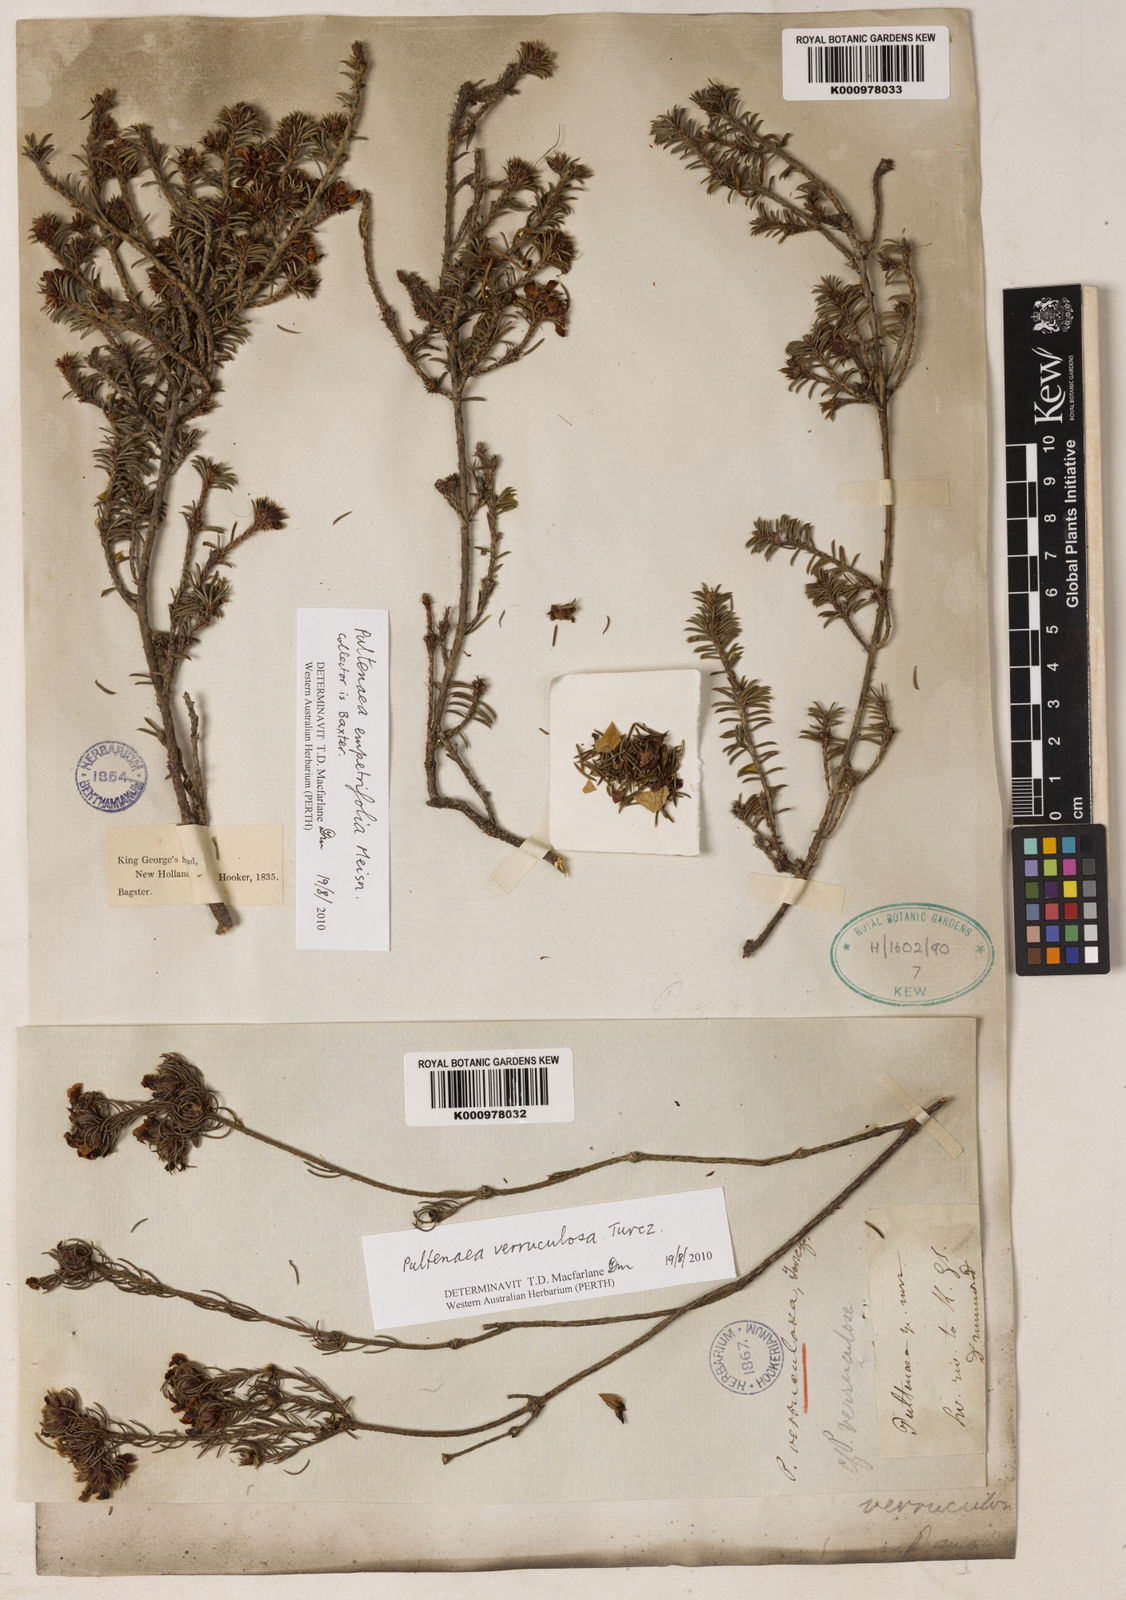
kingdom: Plantae
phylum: Tracheophyta
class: Magnoliopsida
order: Fabales
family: Fabaceae
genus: Pultenaea
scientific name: Pultenaea verruculosa
